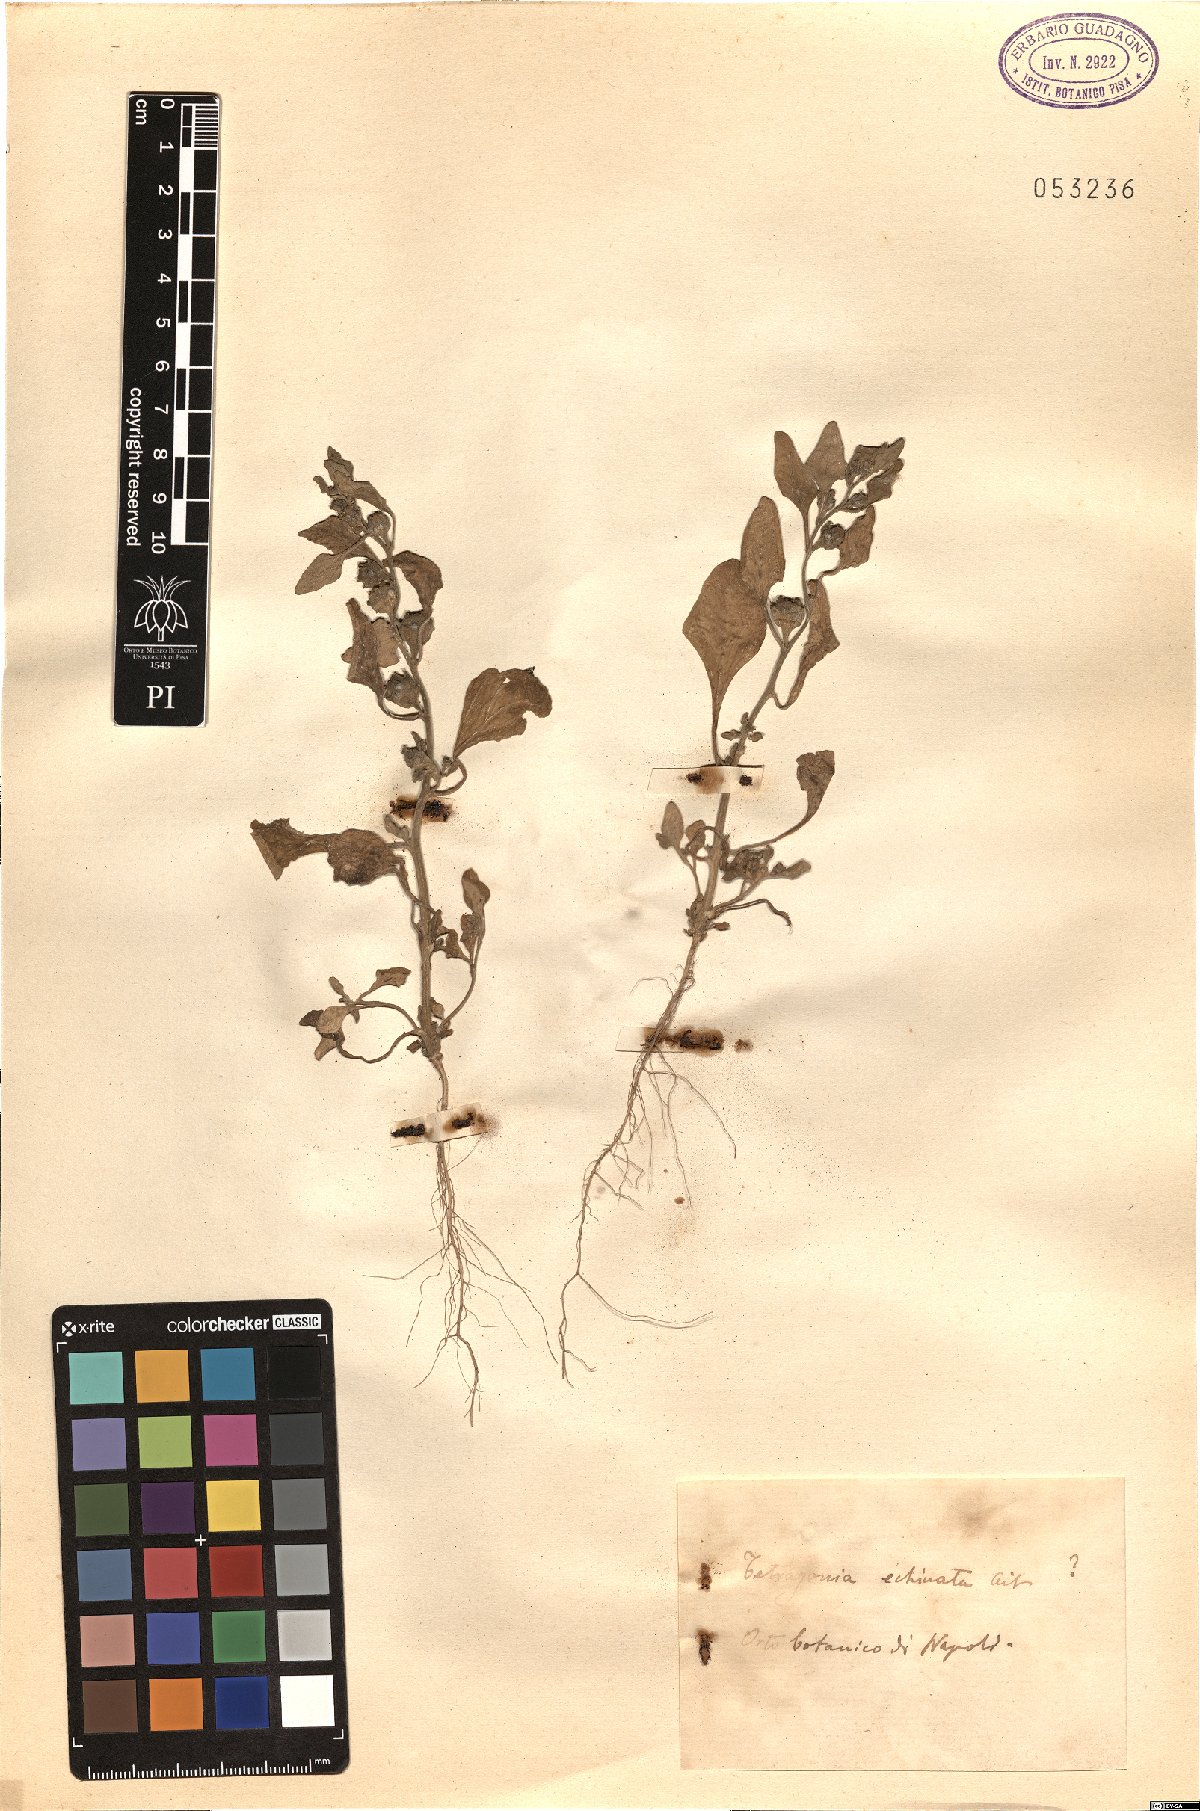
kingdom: Plantae
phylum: Tracheophyta
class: Magnoliopsida
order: Caryophyllales
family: Aizoaceae
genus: Tetragonia
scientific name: Tetragonia echinata
